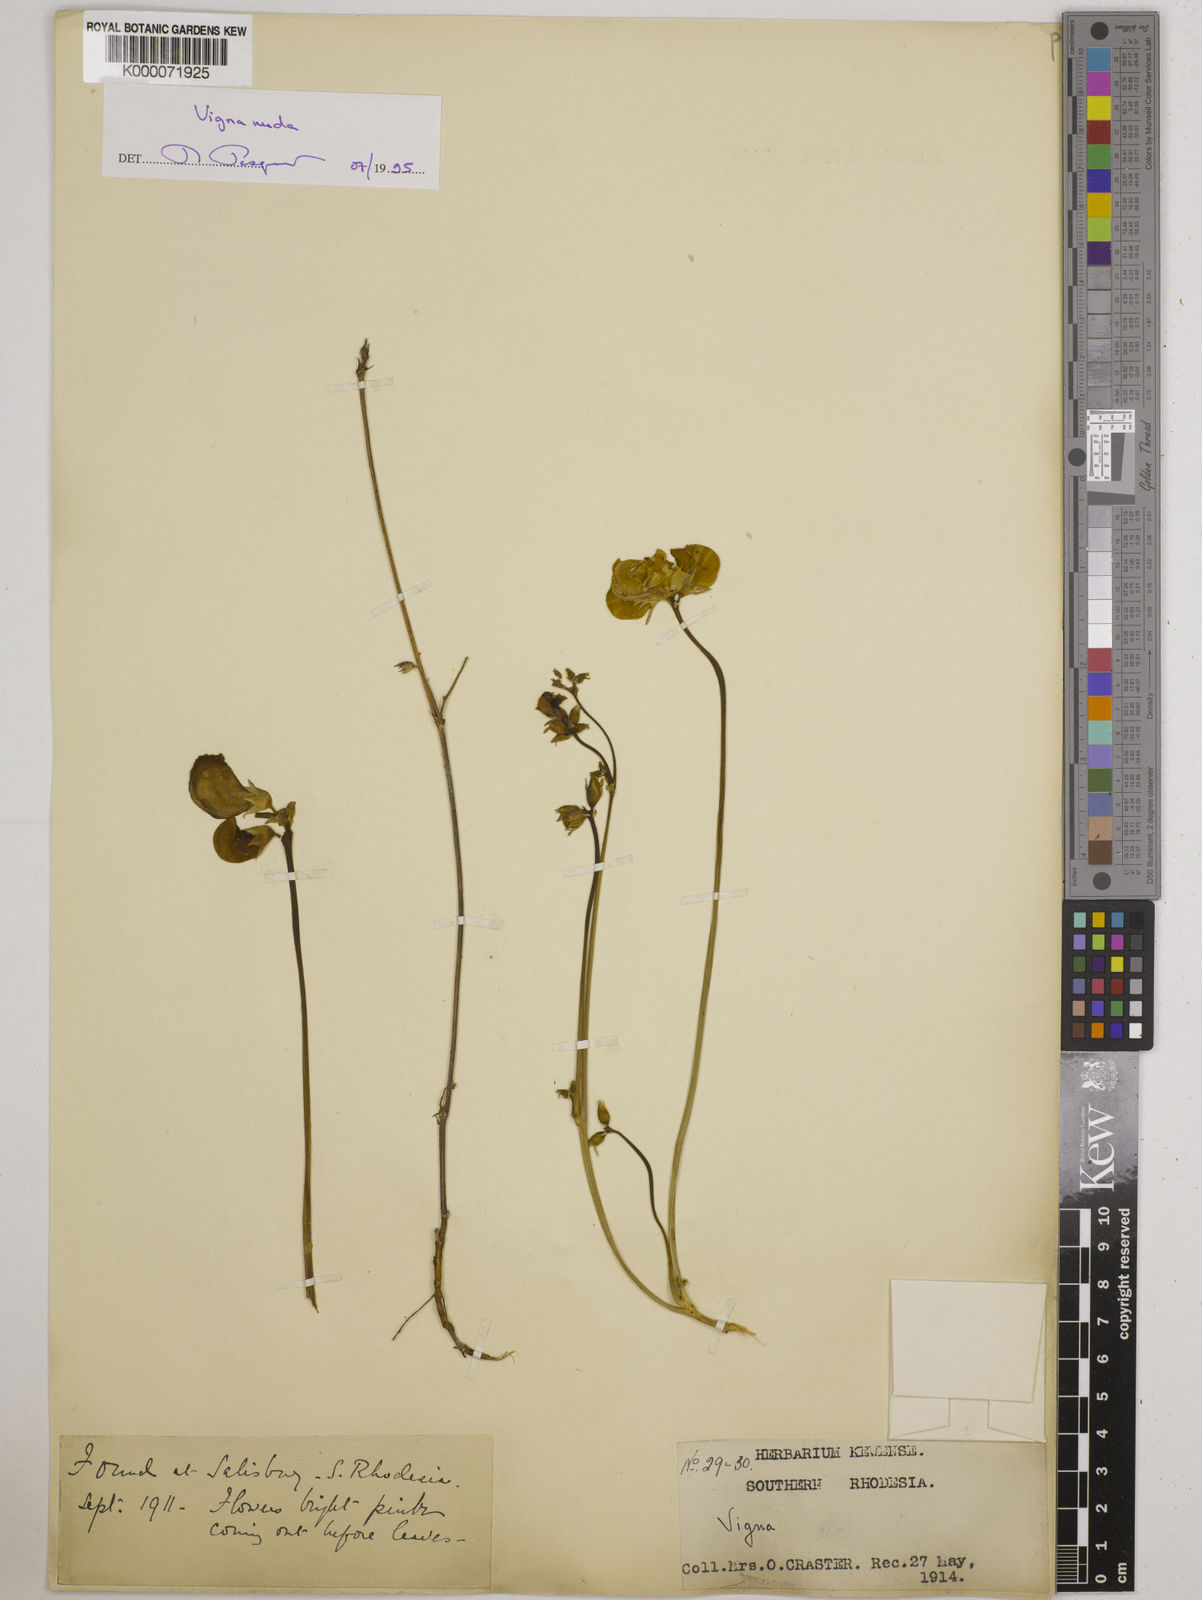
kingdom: Plantae
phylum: Tracheophyta
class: Magnoliopsida
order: Fabales
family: Fabaceae
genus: Vigna
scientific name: Vigna antunesii
